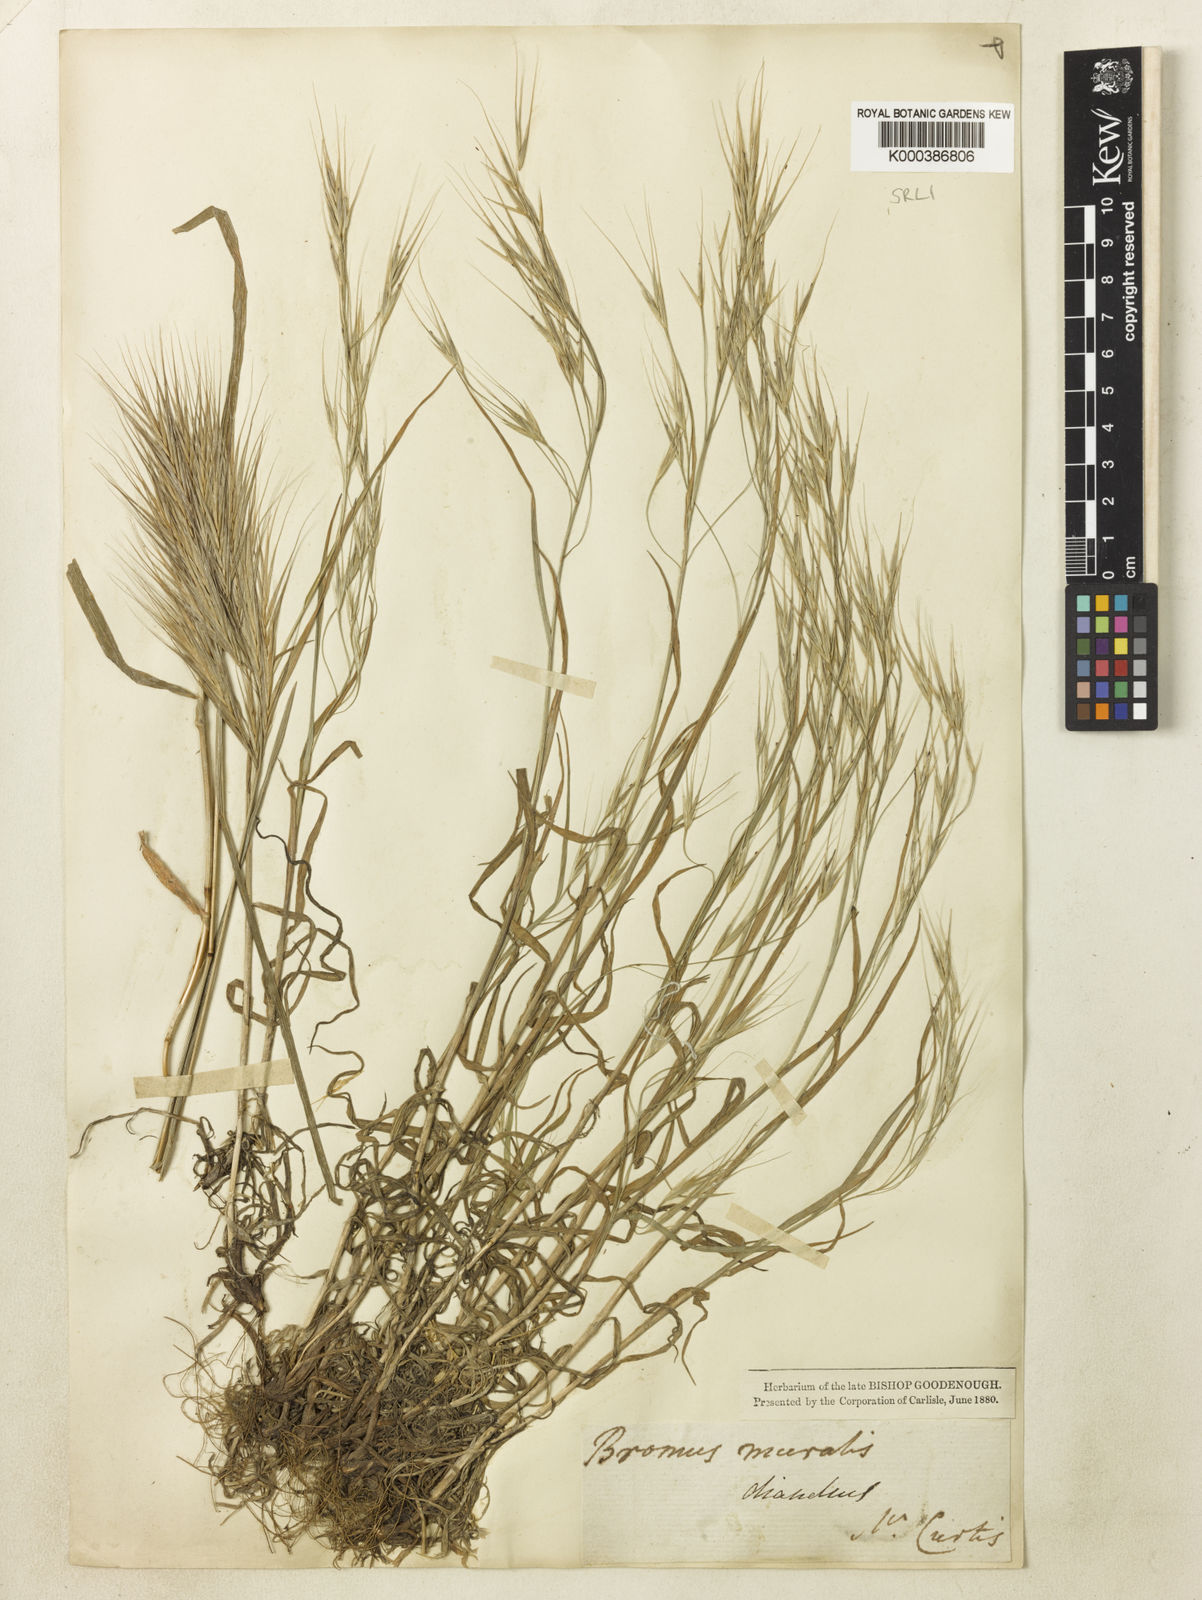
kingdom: Plantae
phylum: Tracheophyta
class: Liliopsida
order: Poales
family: Poaceae
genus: Bromus
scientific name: Bromus madritensis
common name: Compact brome
